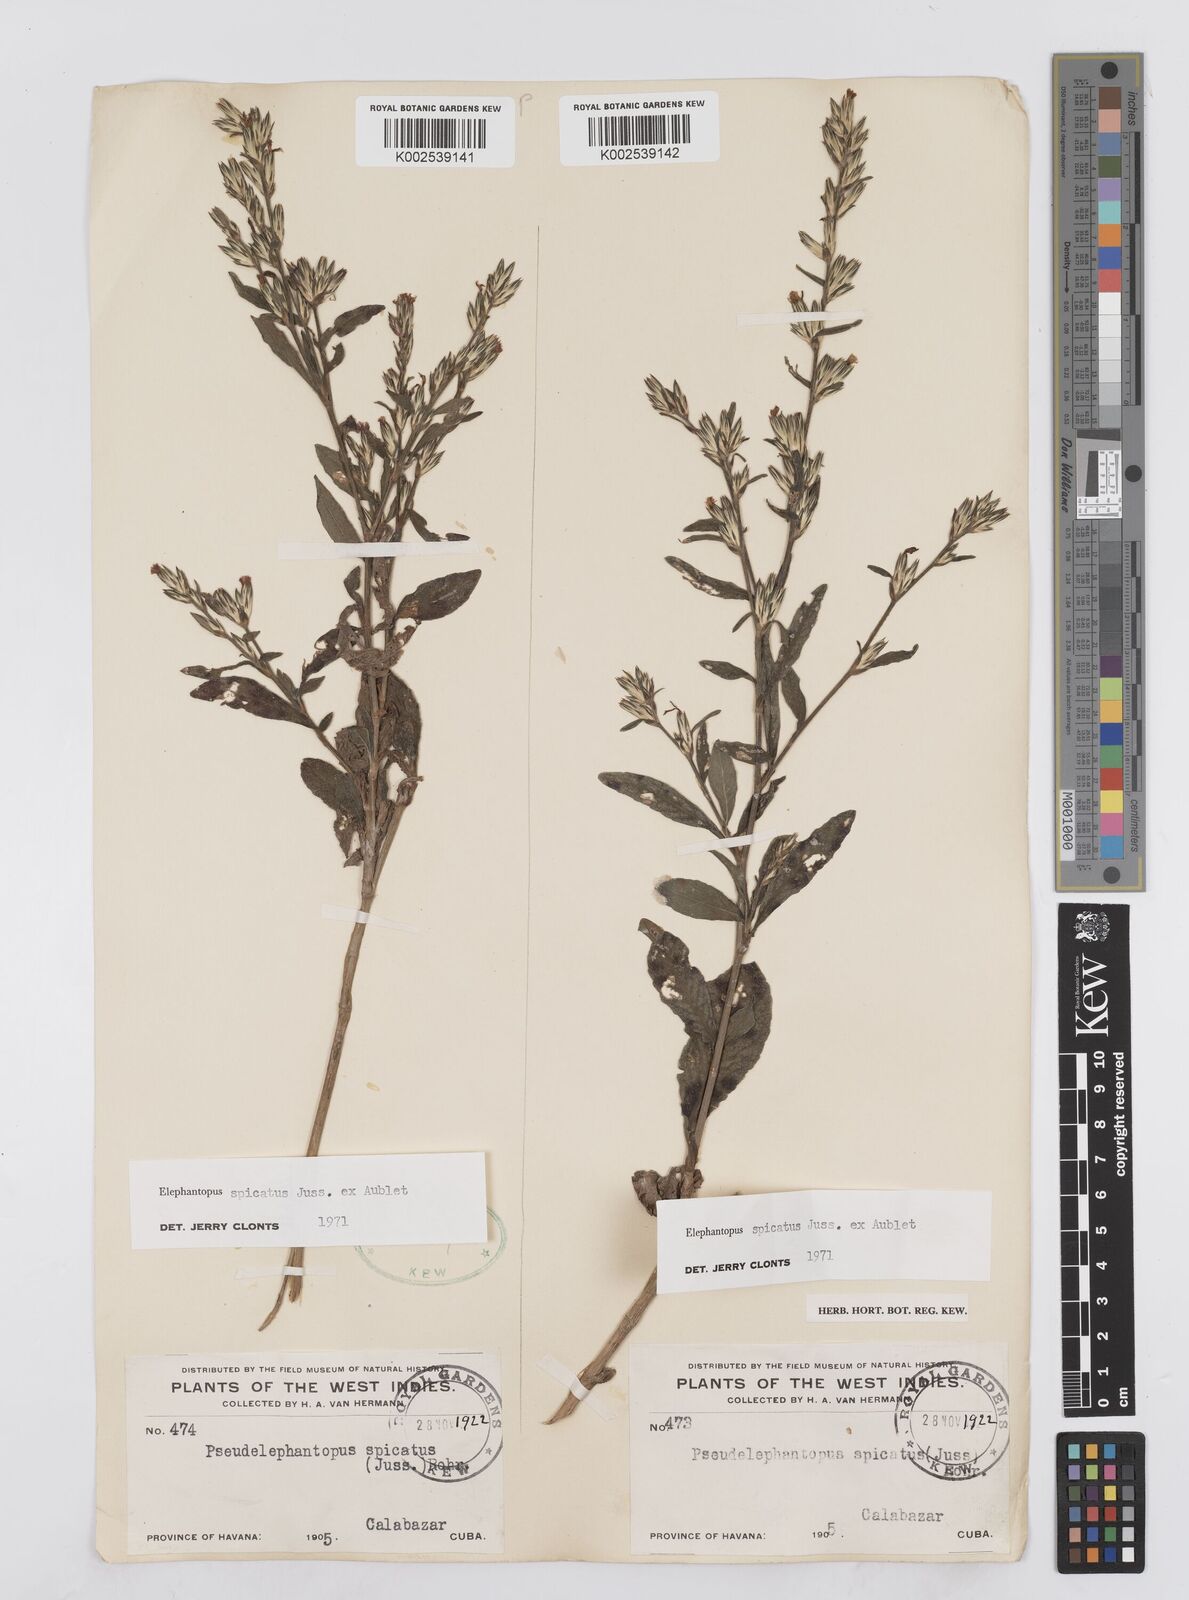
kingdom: Plantae
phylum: Tracheophyta
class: Magnoliopsida
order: Asterales
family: Asteraceae
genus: Pseudelephantopus
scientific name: Pseudelephantopus spicatus
